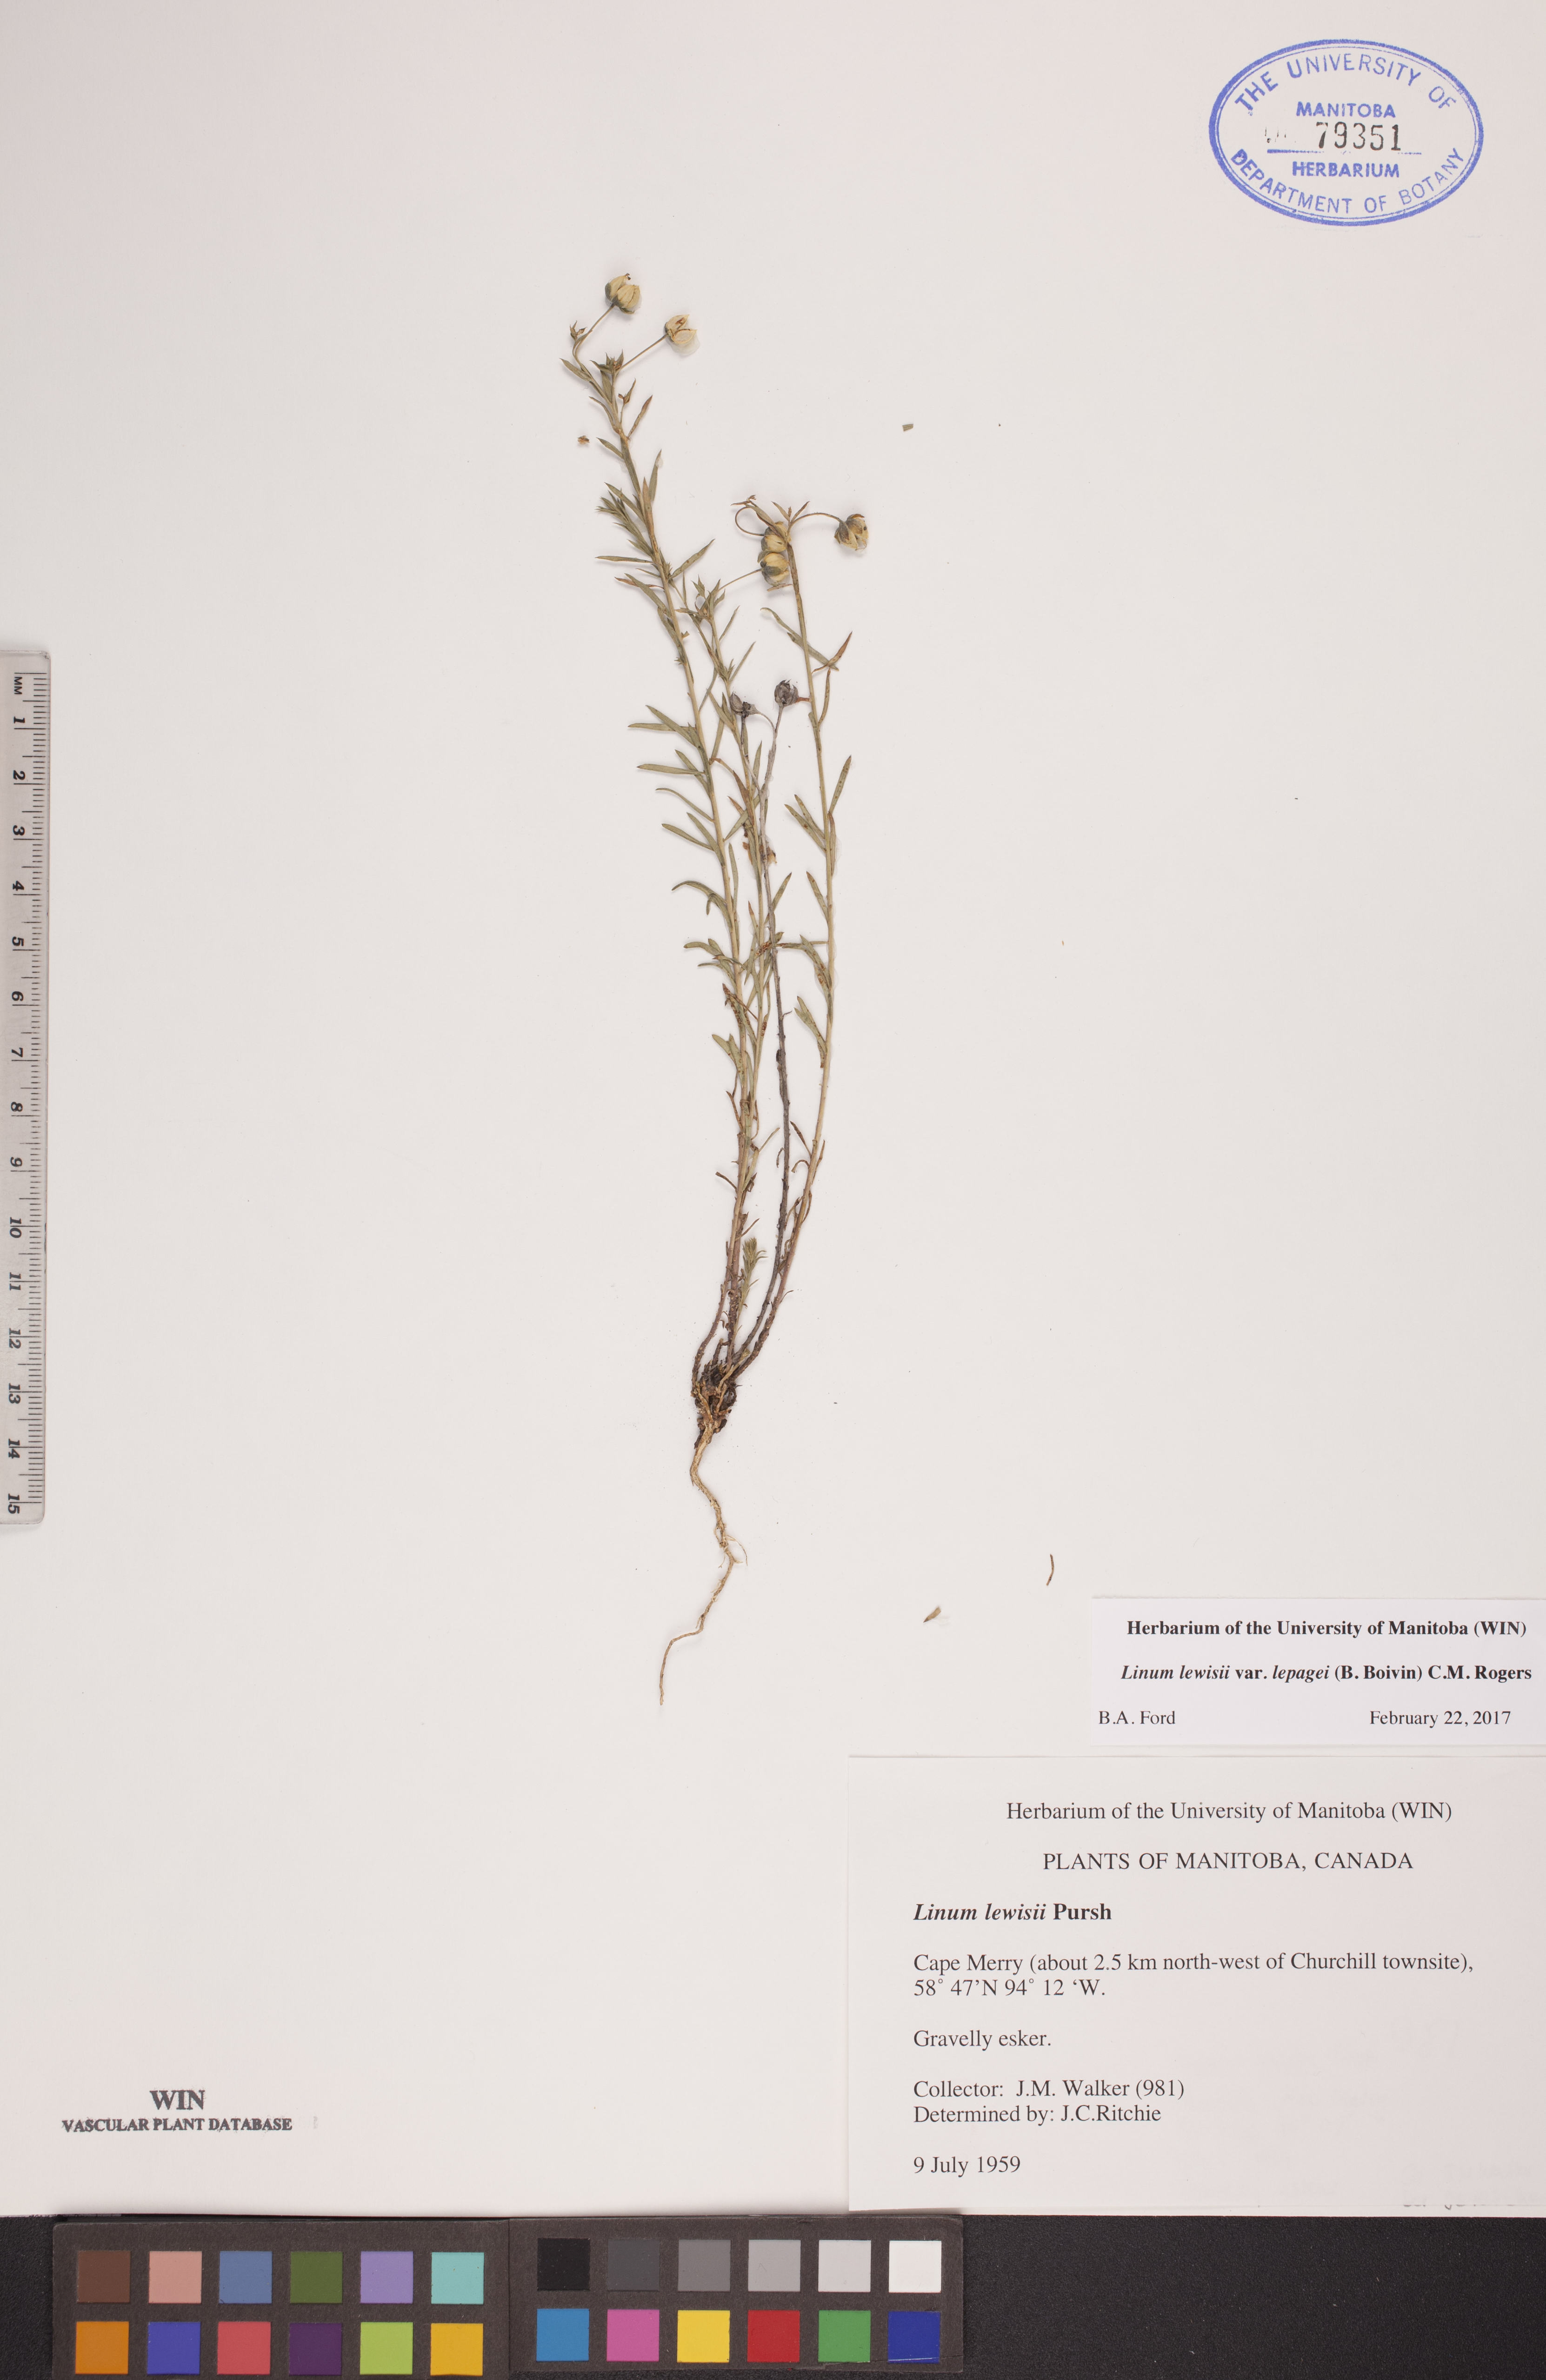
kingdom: Plantae
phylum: Tracheophyta
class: Magnoliopsida
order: Malpighiales
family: Linaceae
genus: Linum
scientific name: Linum lewisii
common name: Prairie flax
